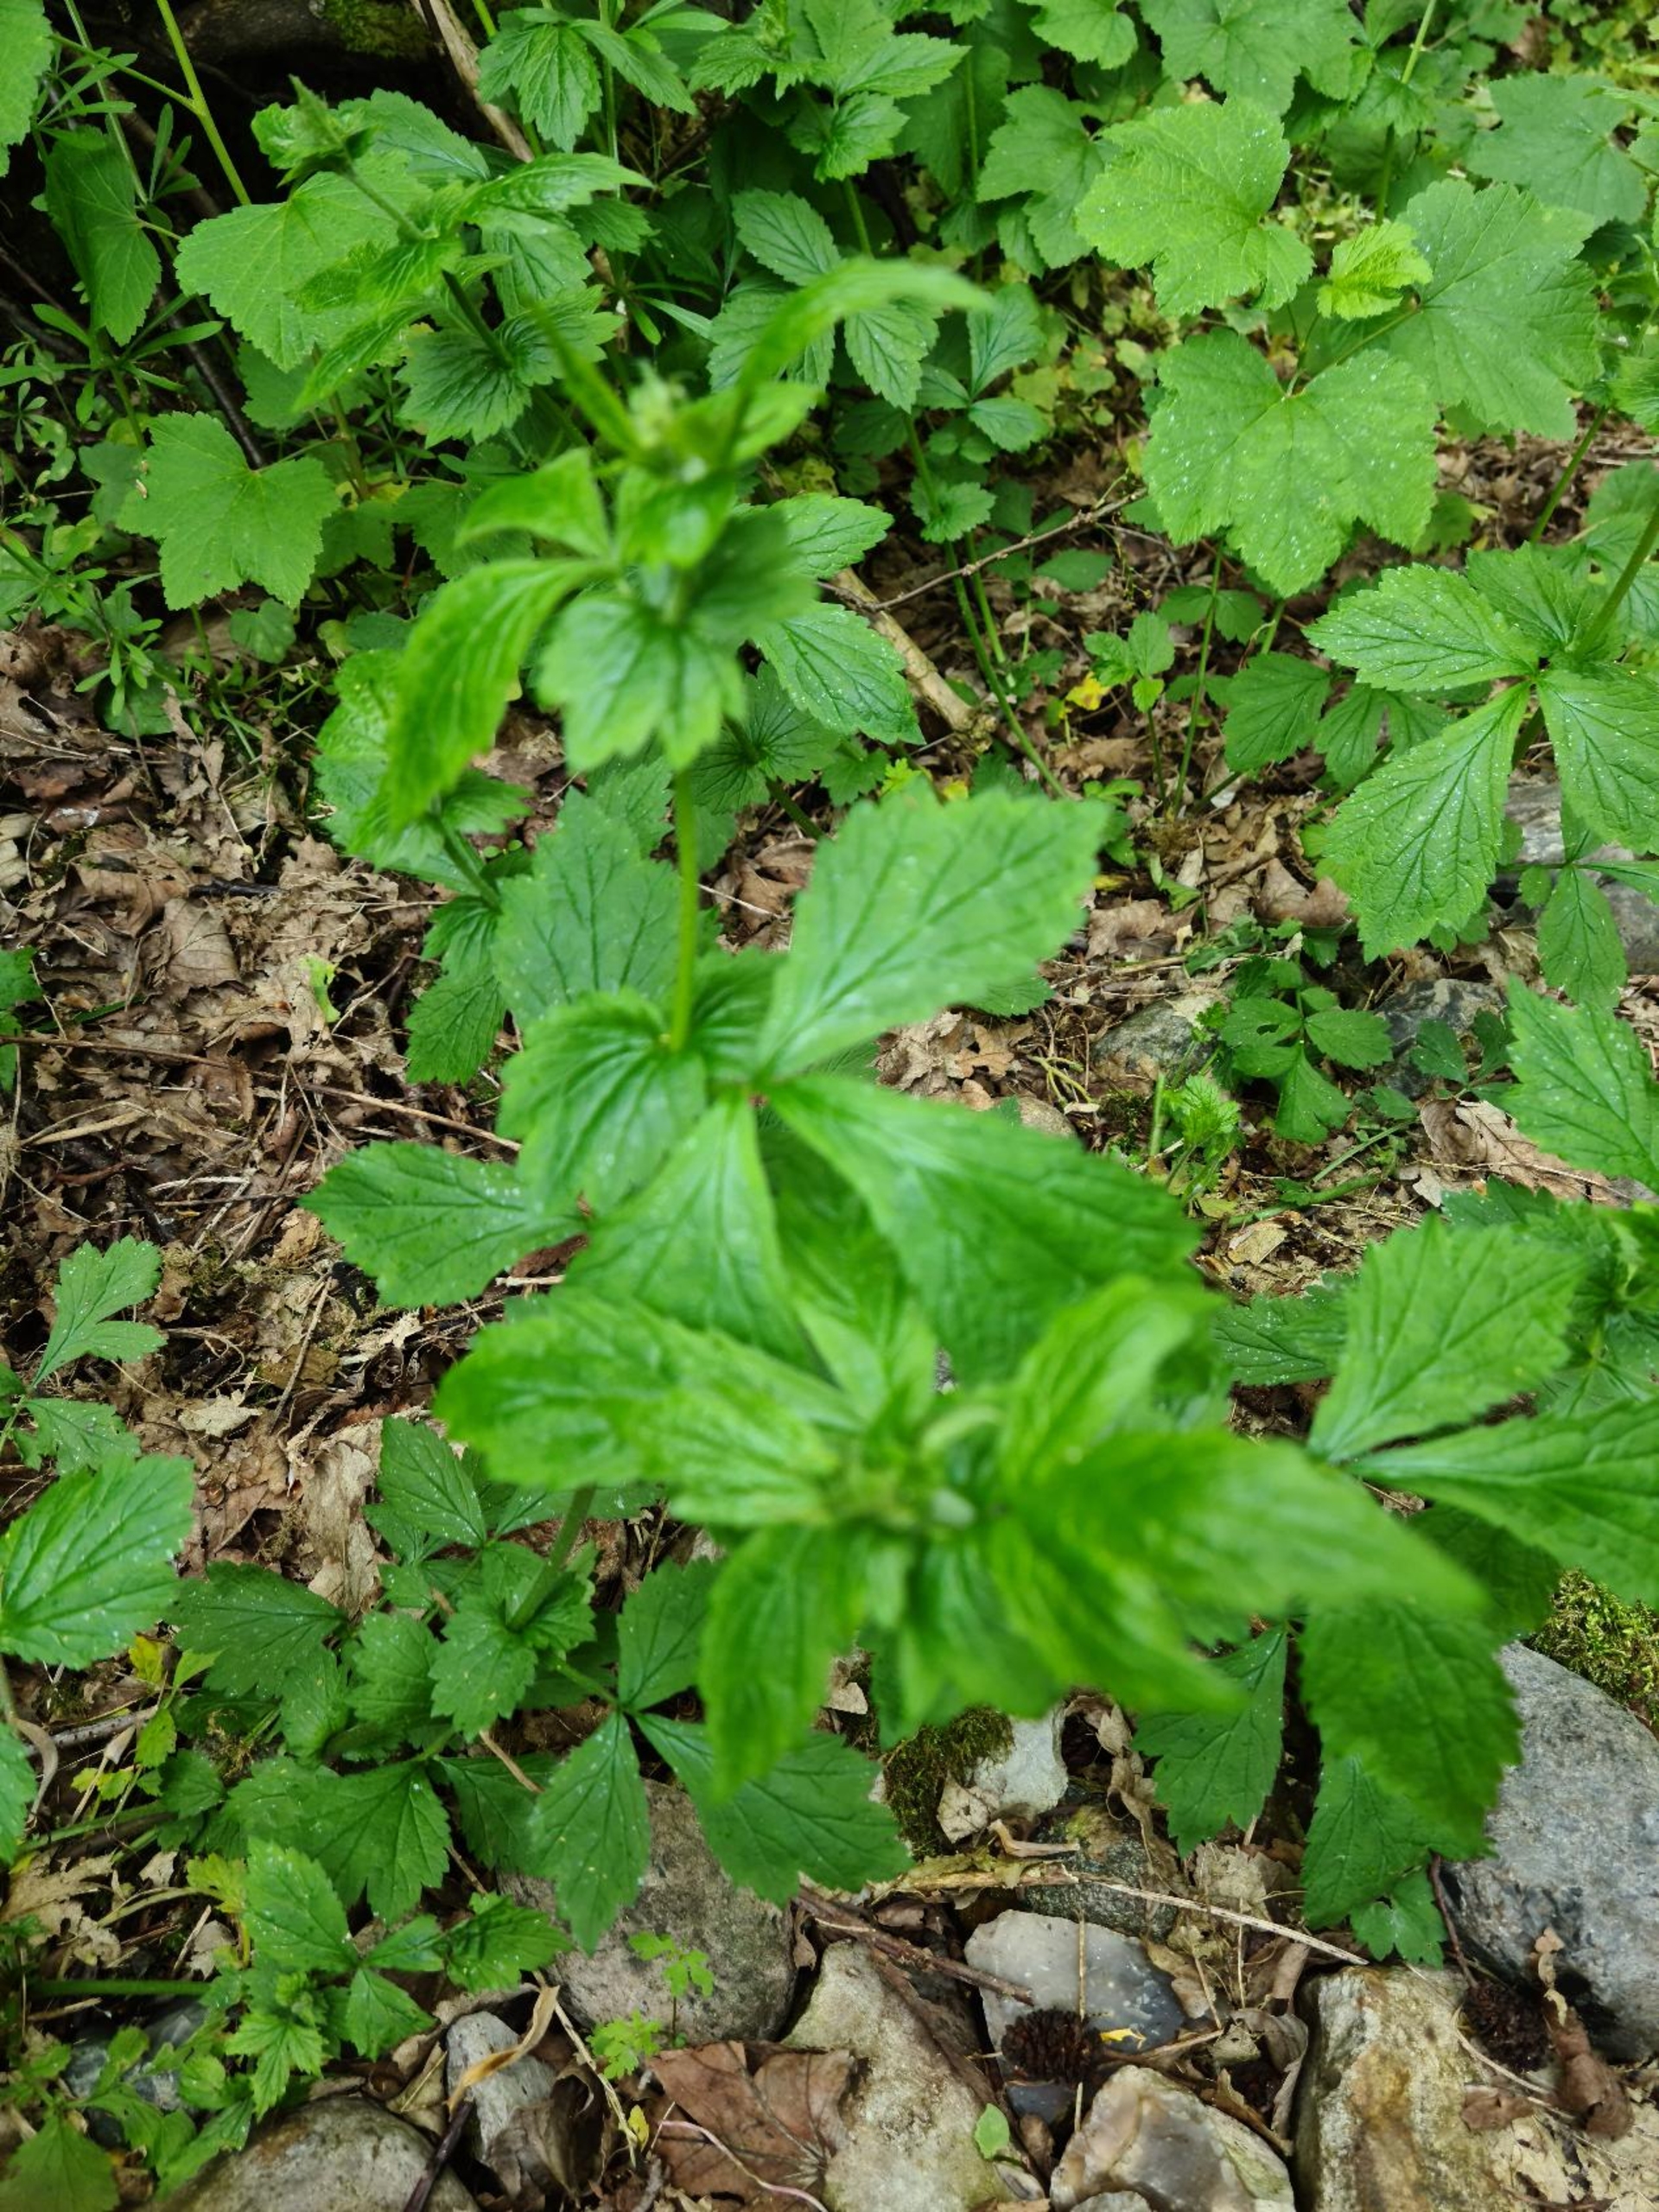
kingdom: Plantae
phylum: Tracheophyta
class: Magnoliopsida
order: Rosales
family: Rosaceae
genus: Geum
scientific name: Geum urbanum
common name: Feber-nellikerod
